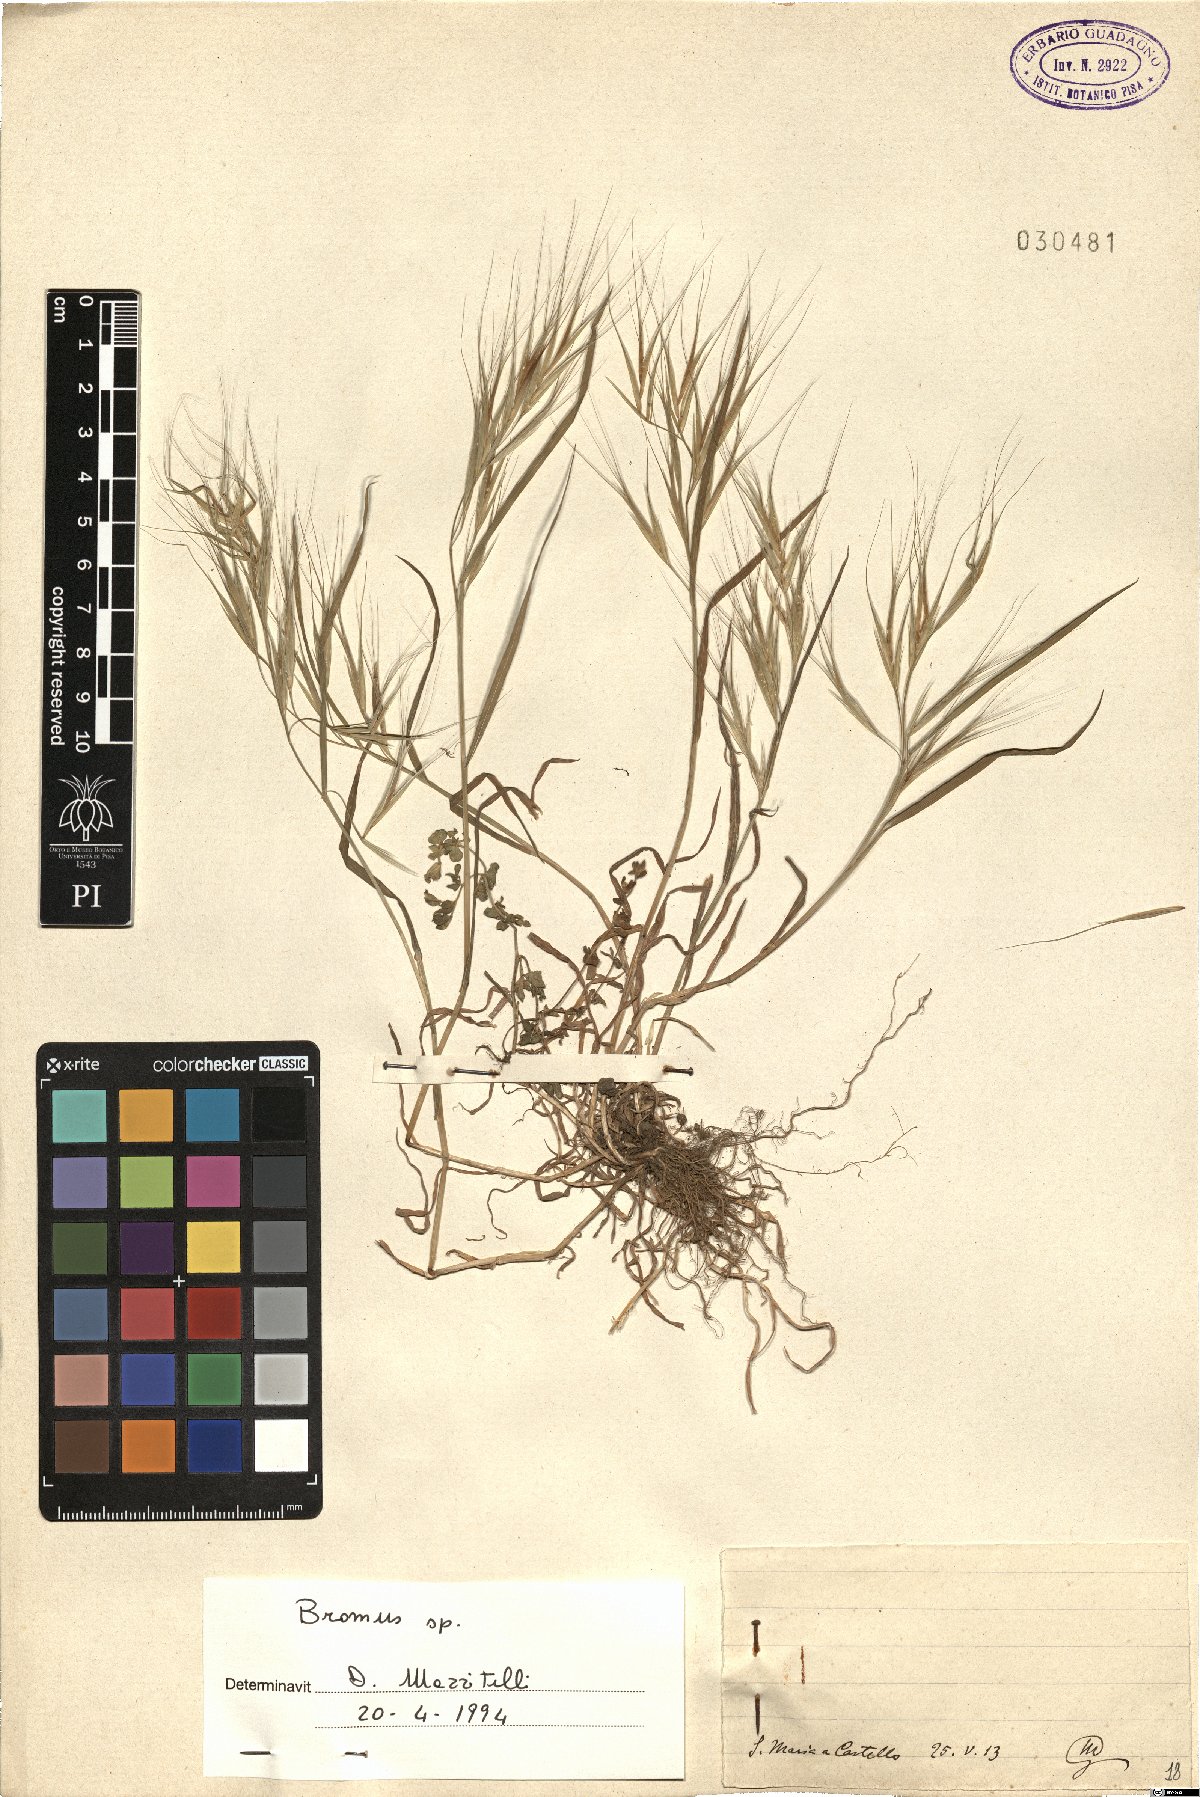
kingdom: Plantae
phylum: Tracheophyta
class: Liliopsida
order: Poales
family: Poaceae
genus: Bromus
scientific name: Bromus
